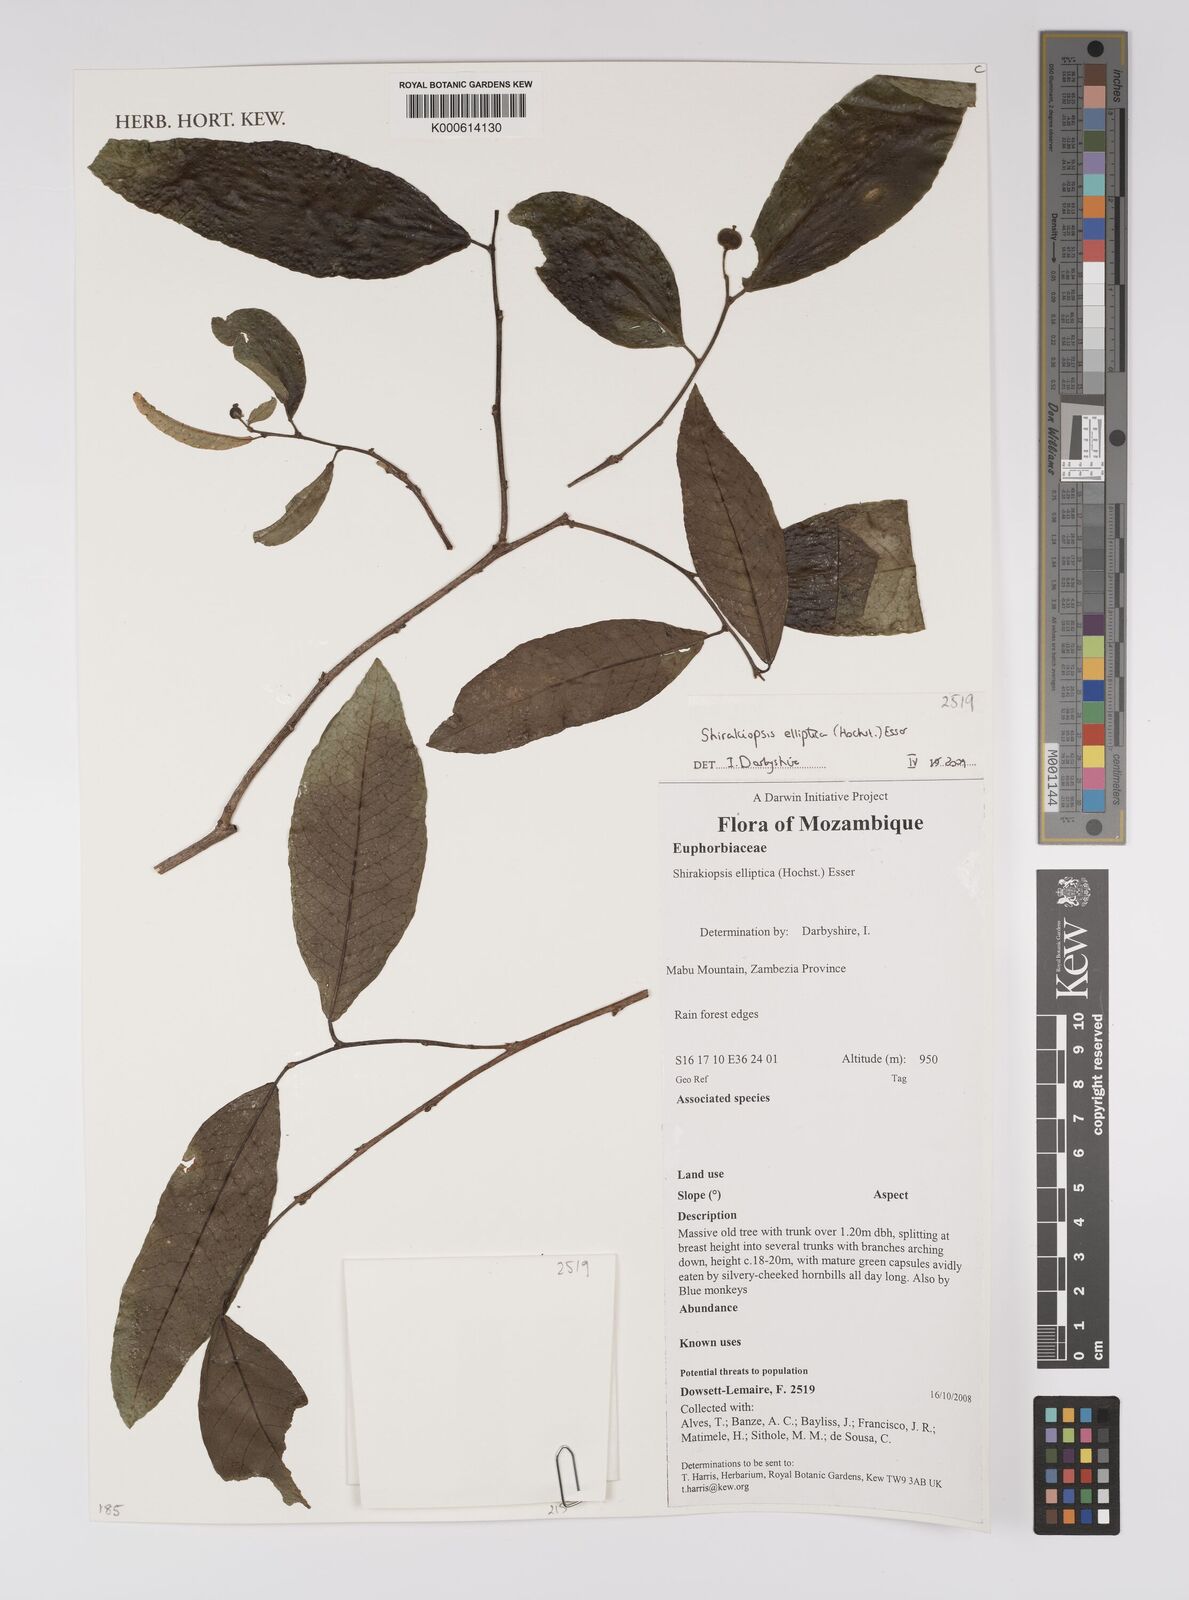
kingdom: Plantae
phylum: Tracheophyta
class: Magnoliopsida
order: Malpighiales
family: Euphorbiaceae
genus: Shirakiopsis
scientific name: Shirakiopsis elliptica
